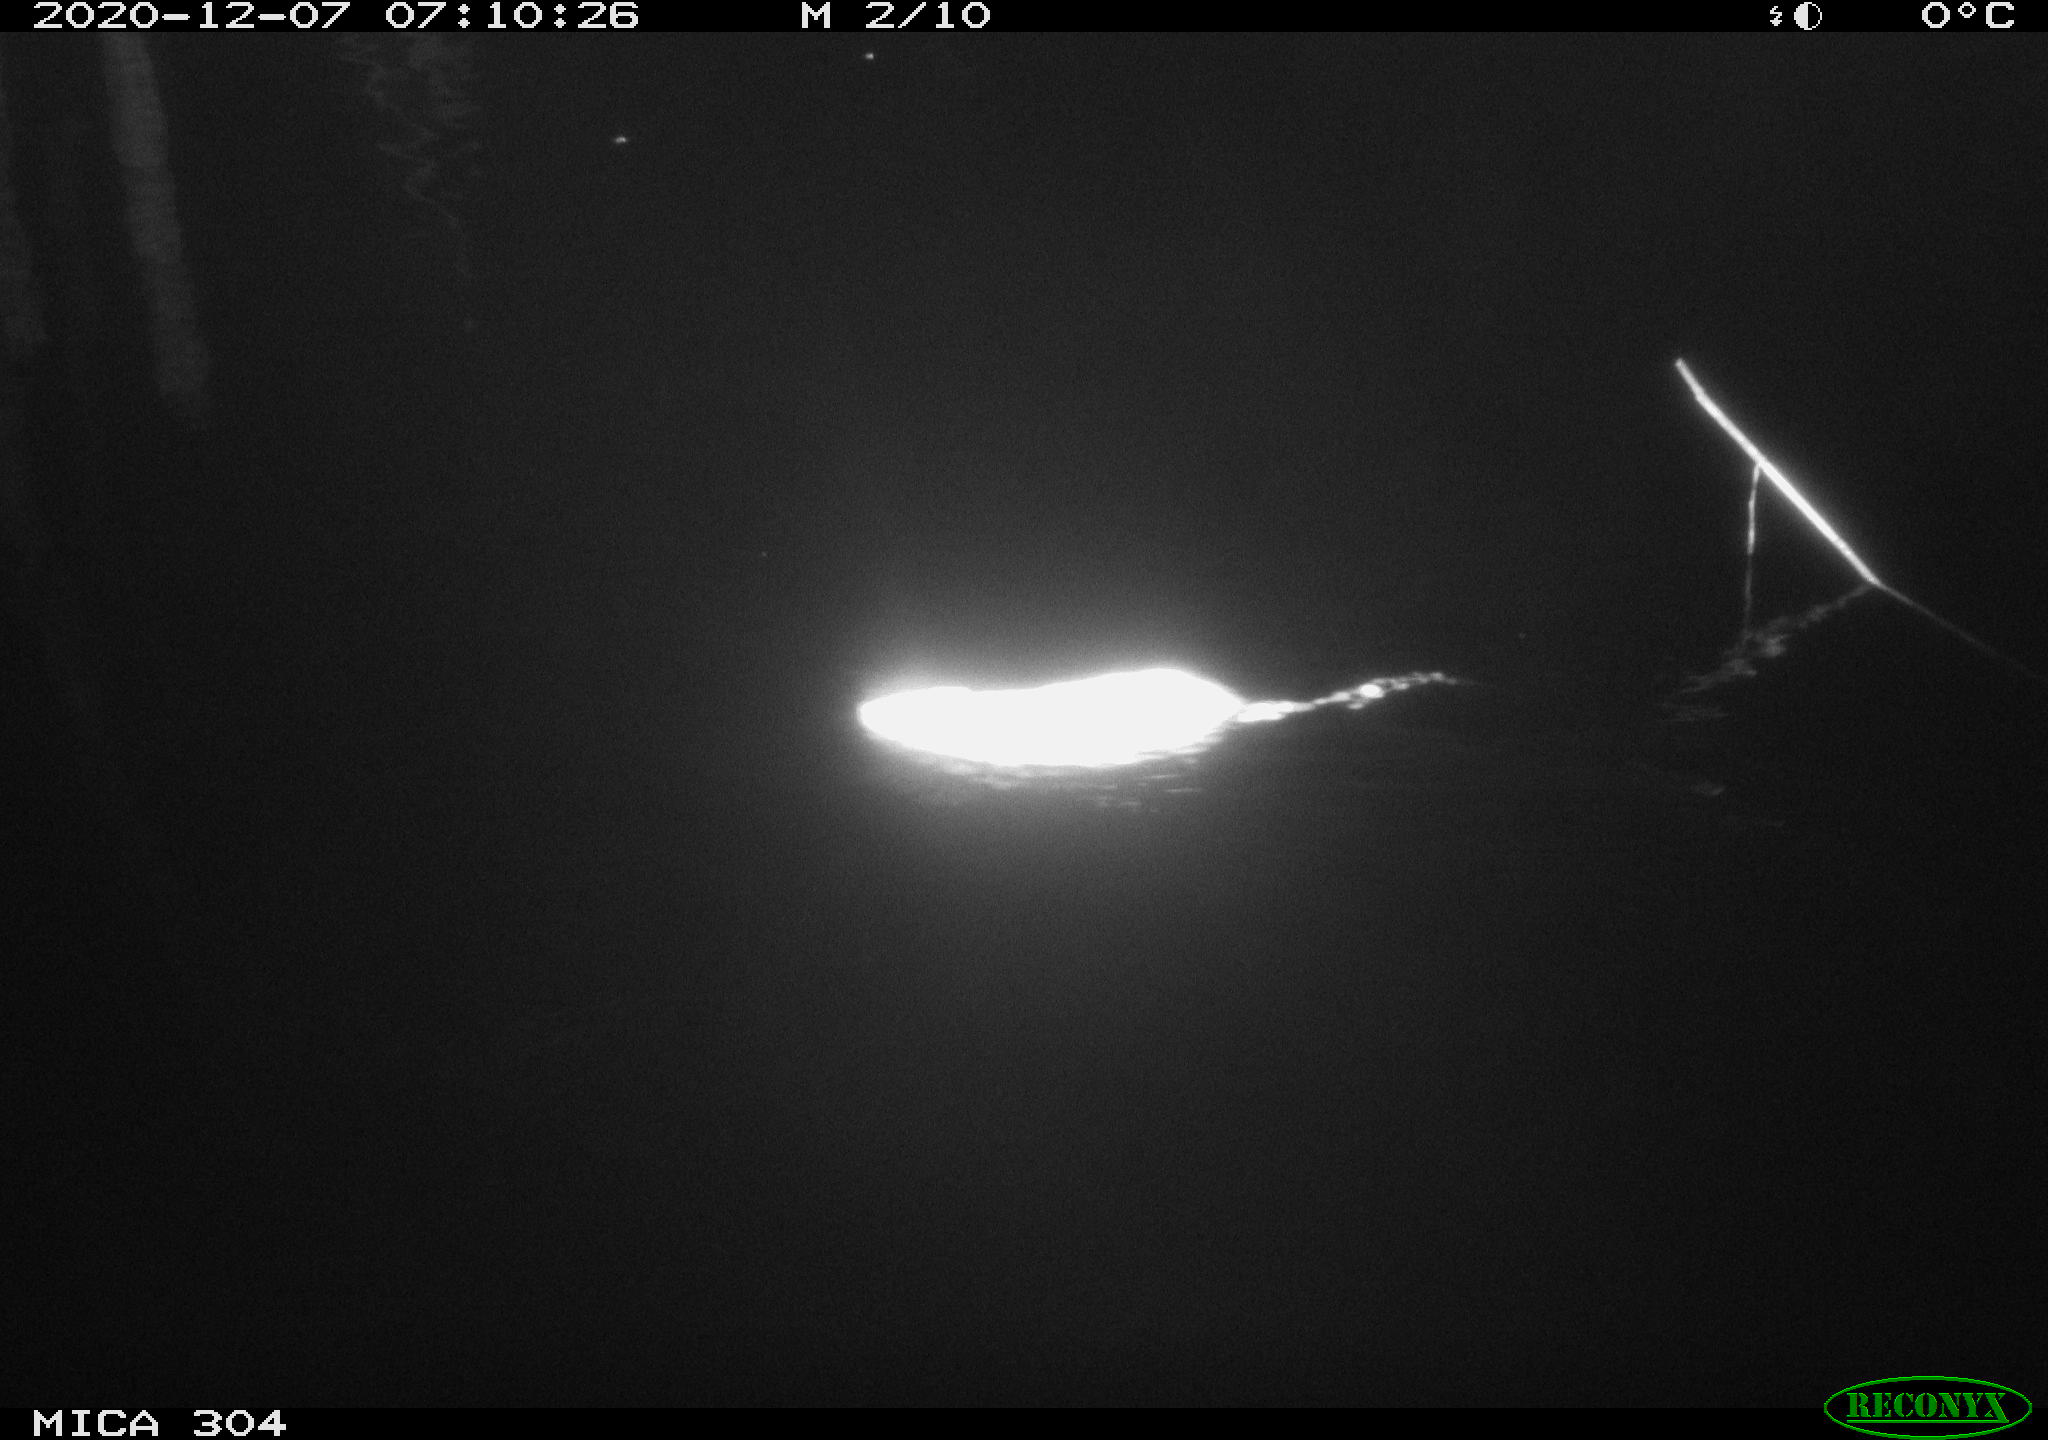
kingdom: Animalia
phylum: Chordata
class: Mammalia
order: Rodentia
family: Muridae
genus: Rattus
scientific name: Rattus norvegicus
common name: Brown rat
